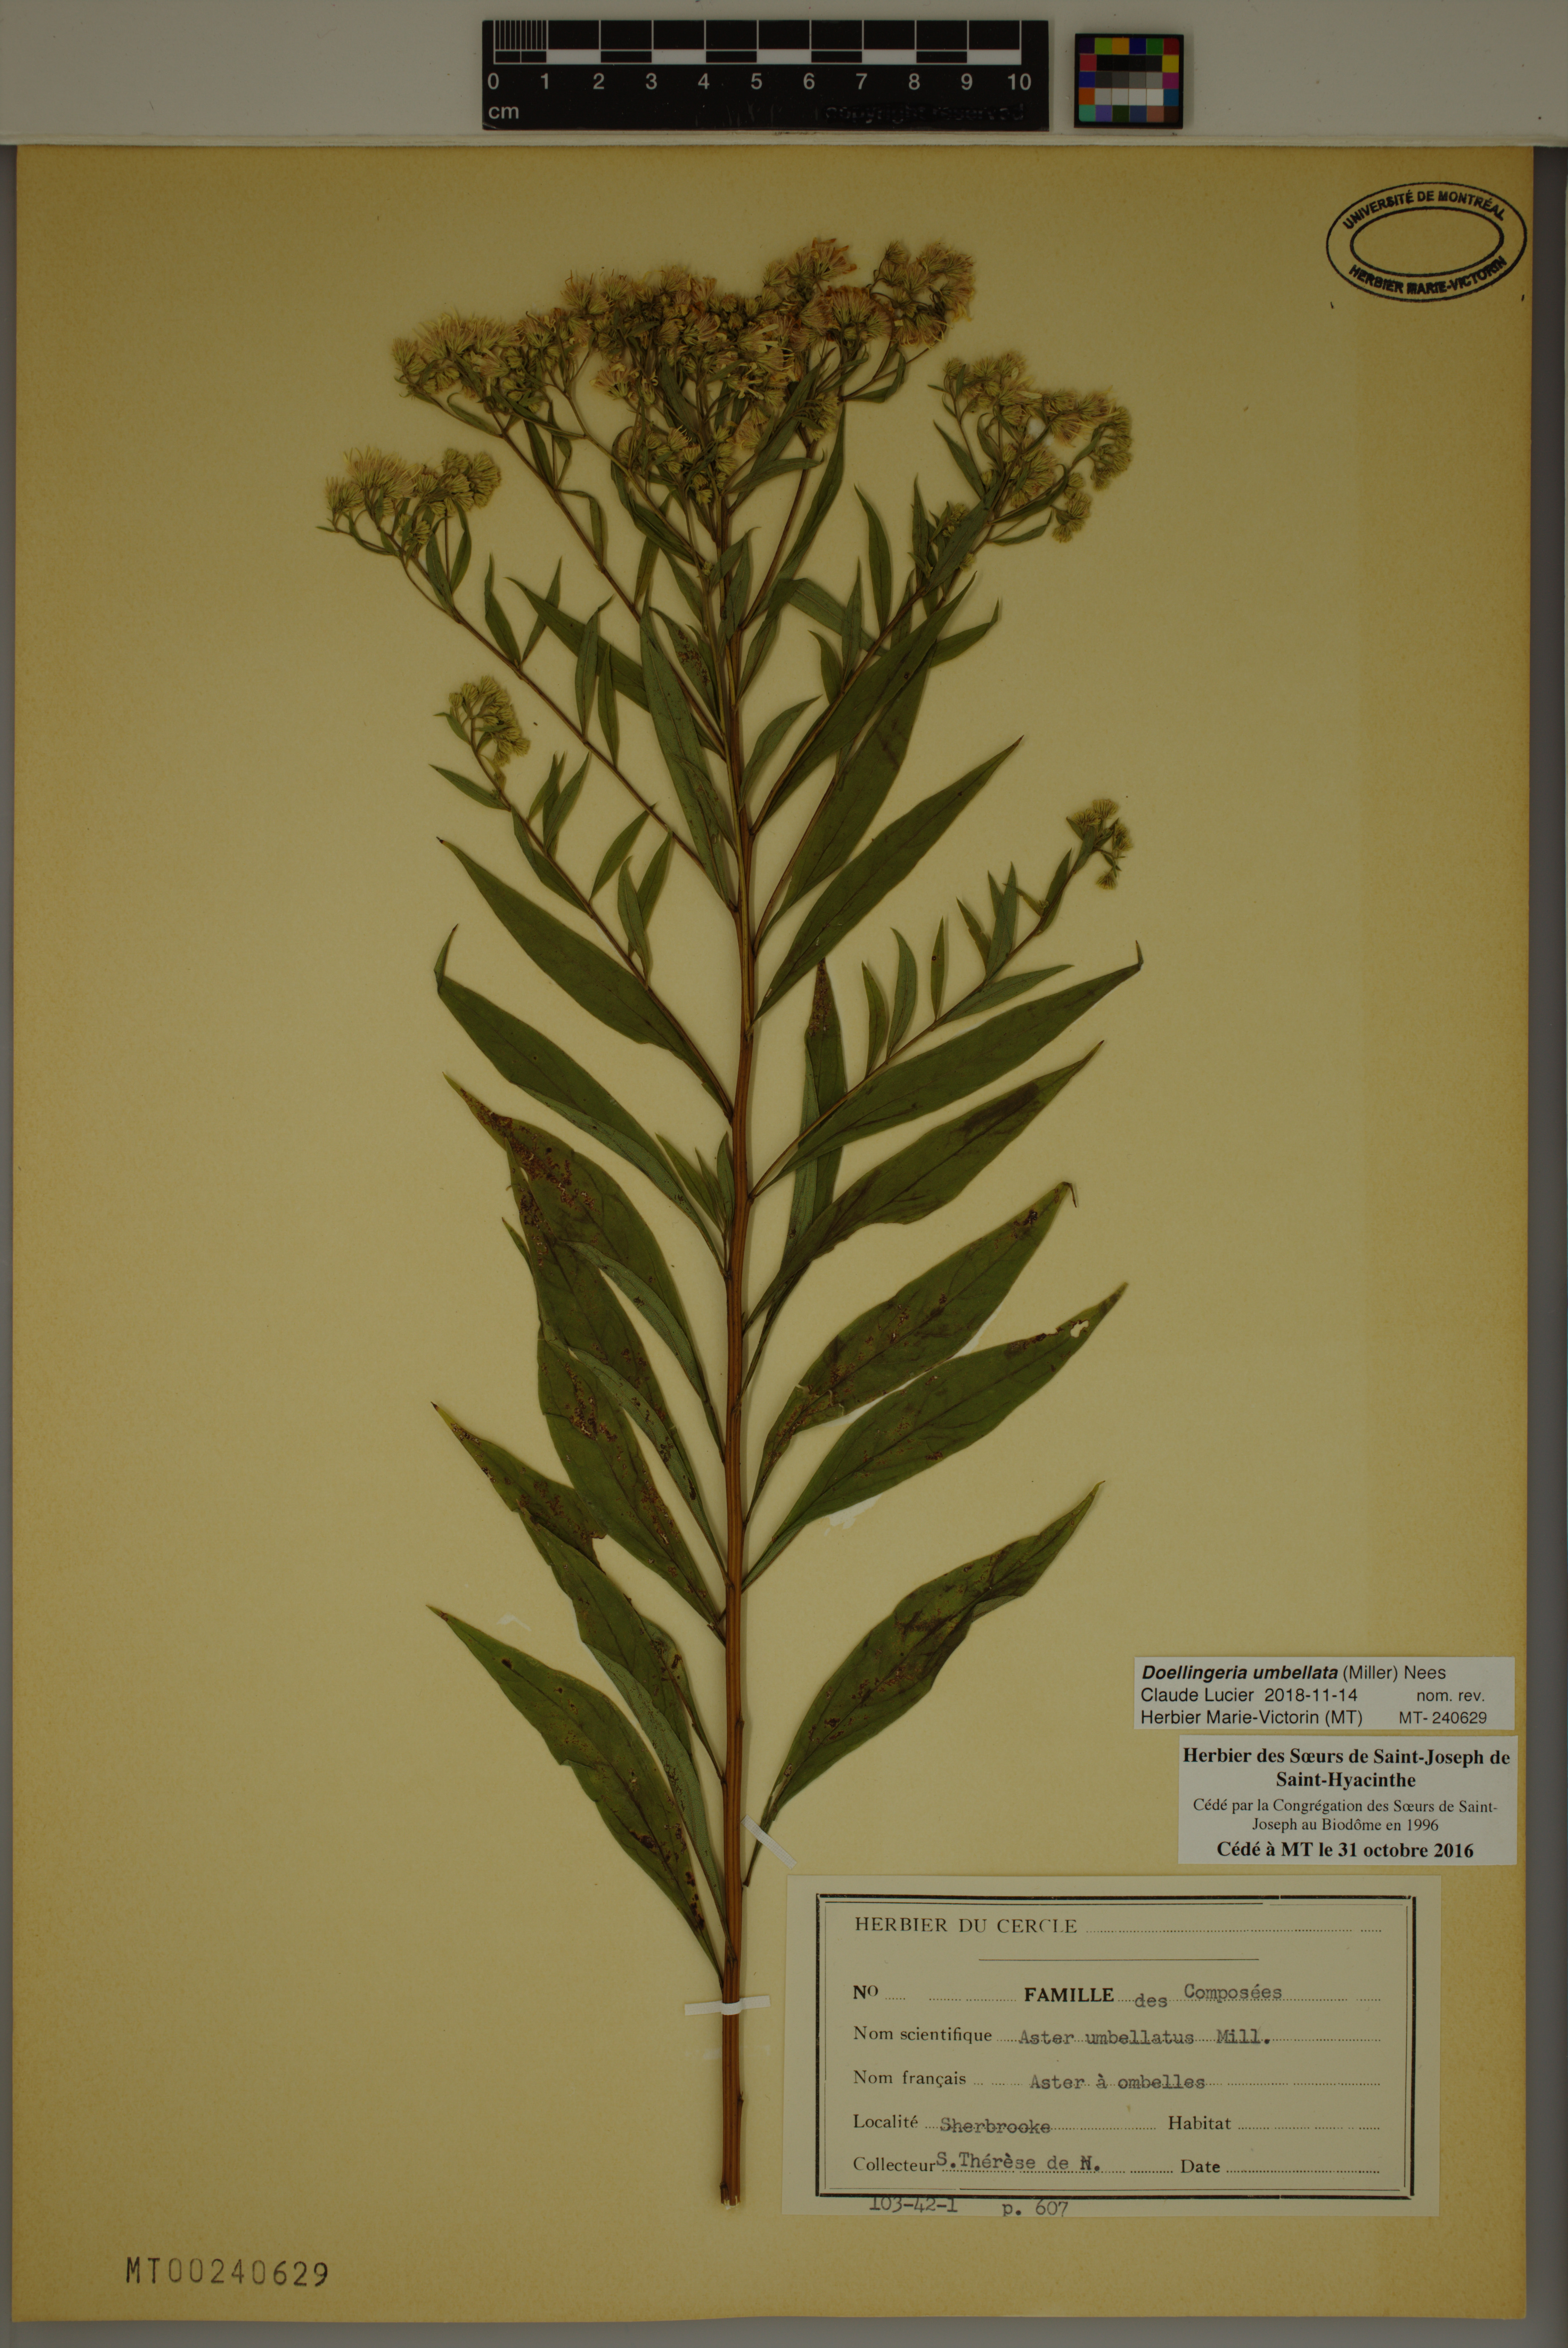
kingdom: Plantae
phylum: Tracheophyta
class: Magnoliopsida
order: Asterales
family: Asteraceae
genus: Doellingeria
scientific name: Doellingeria umbellata
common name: Flat-top white aster
